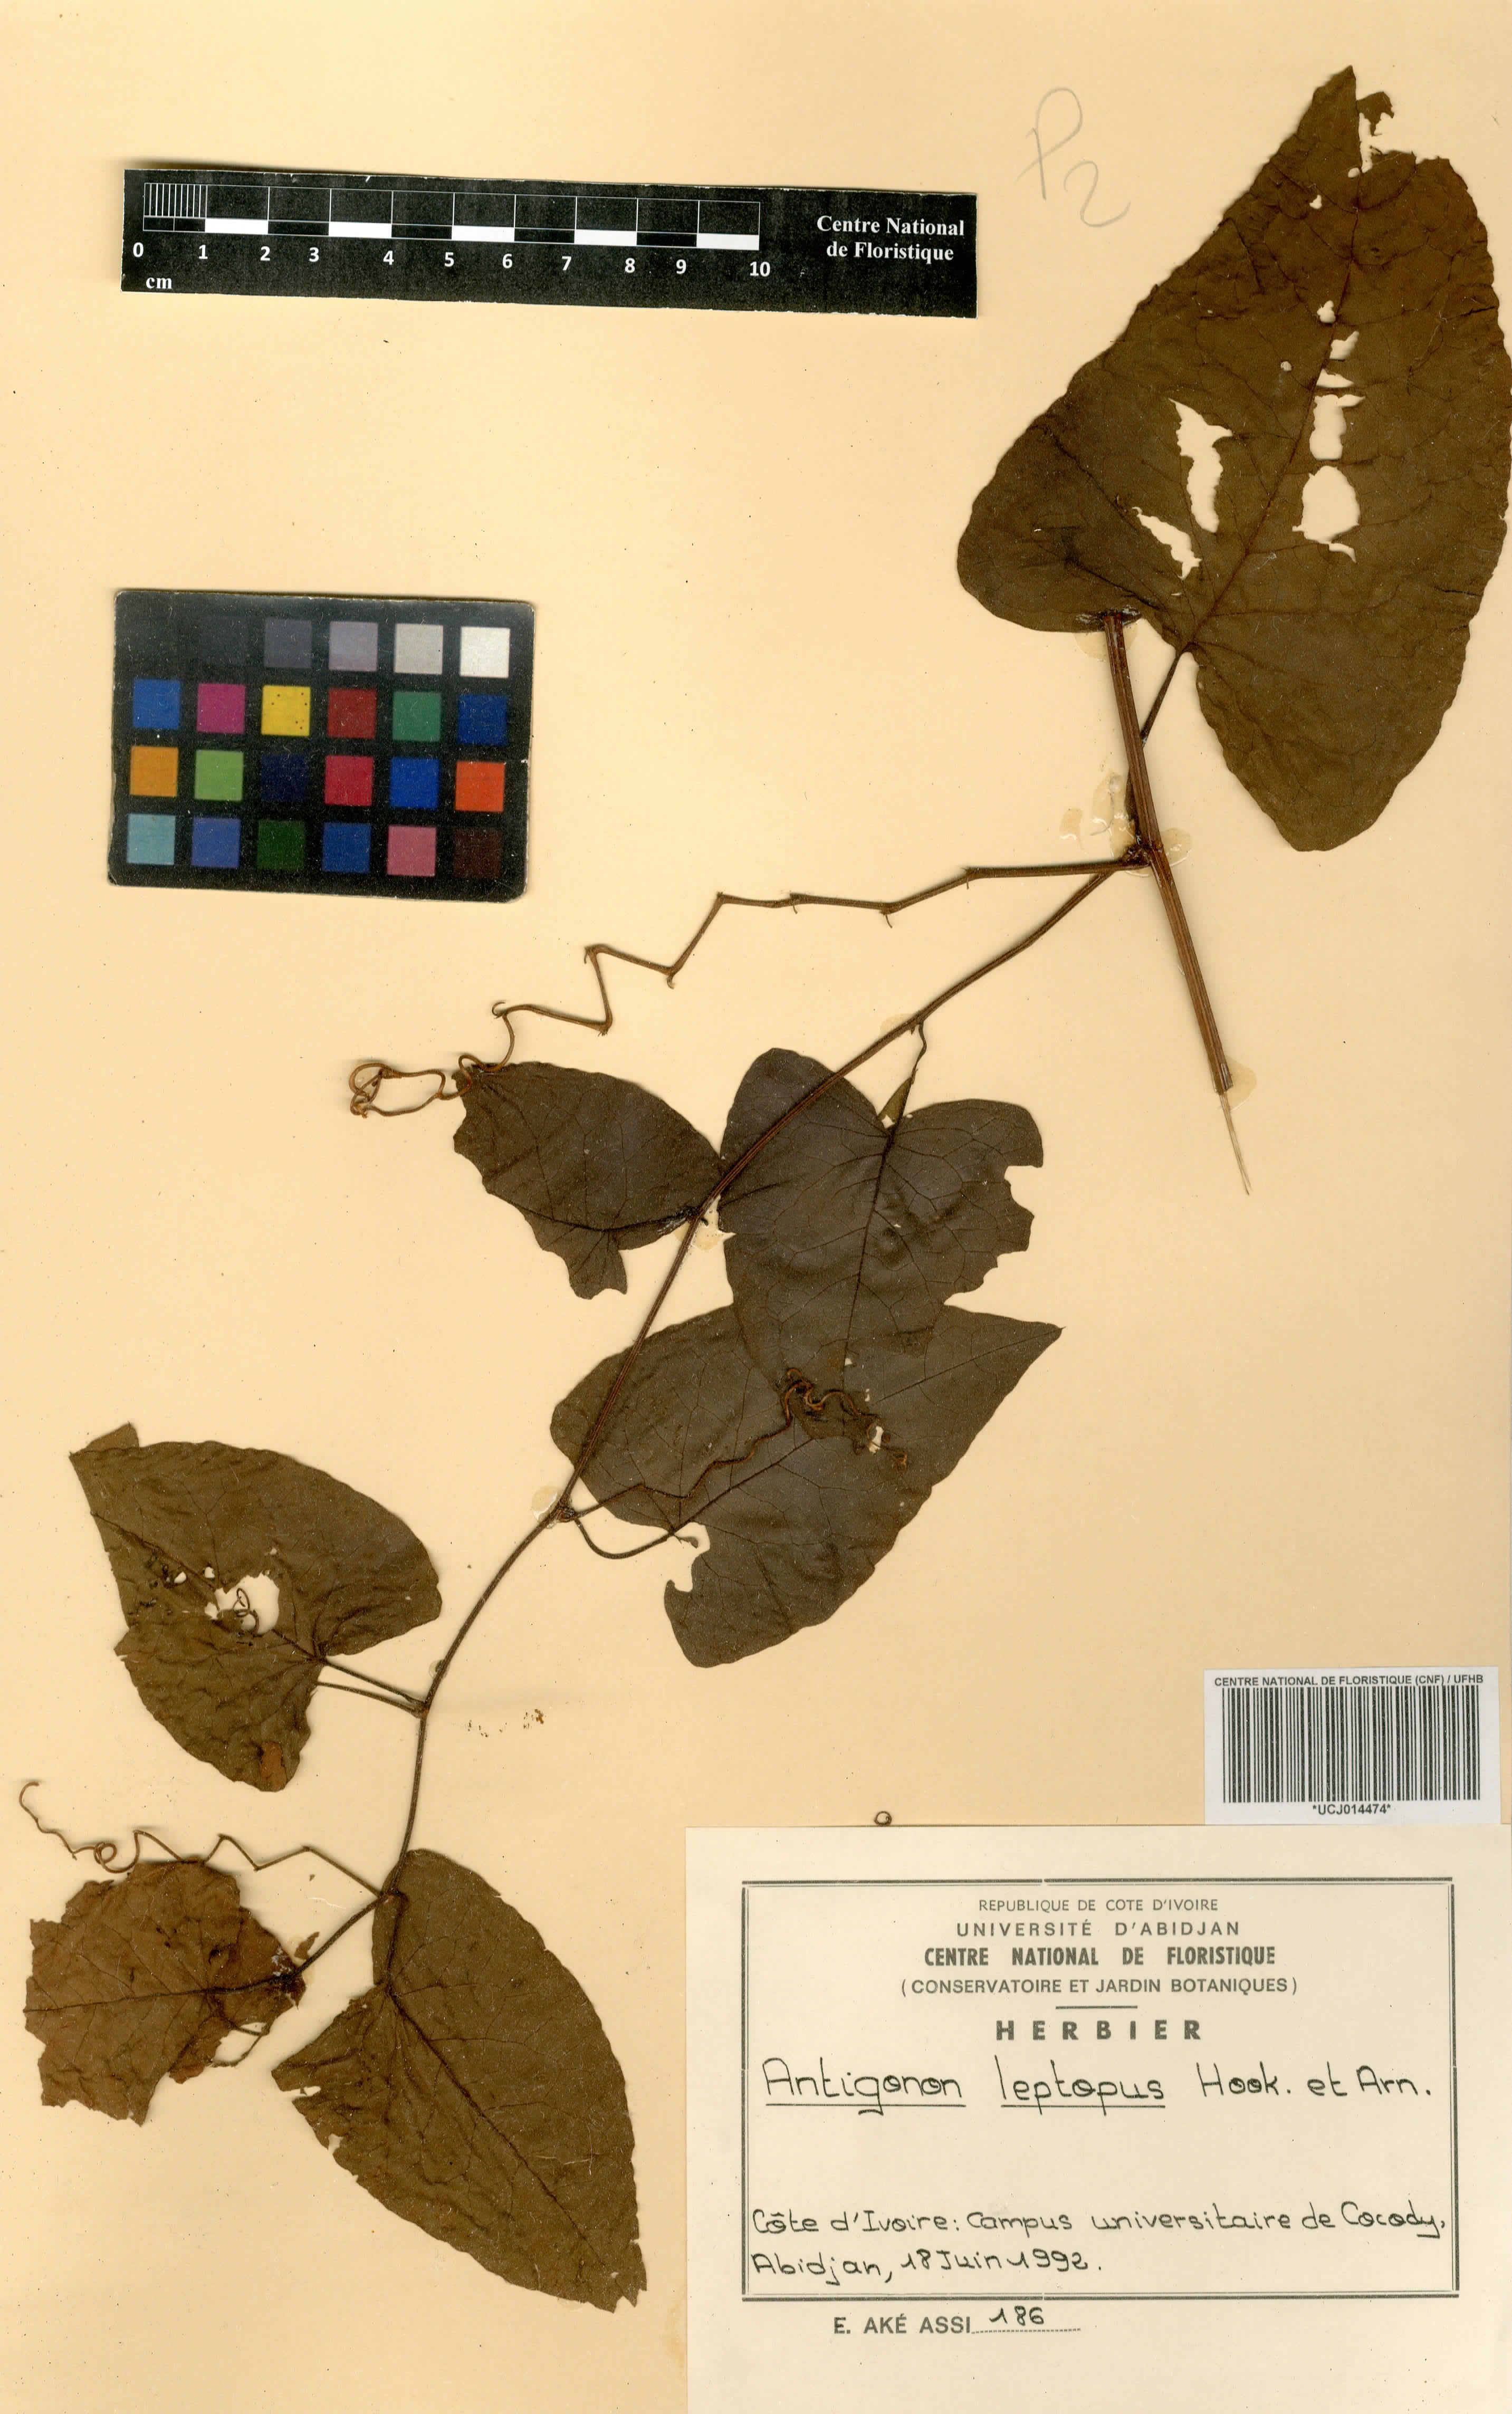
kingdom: Plantae
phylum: Tracheophyta
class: Magnoliopsida
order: Caryophyllales
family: Polygonaceae
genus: Antigonon
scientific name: Antigonon leptopus
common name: Coral vine
